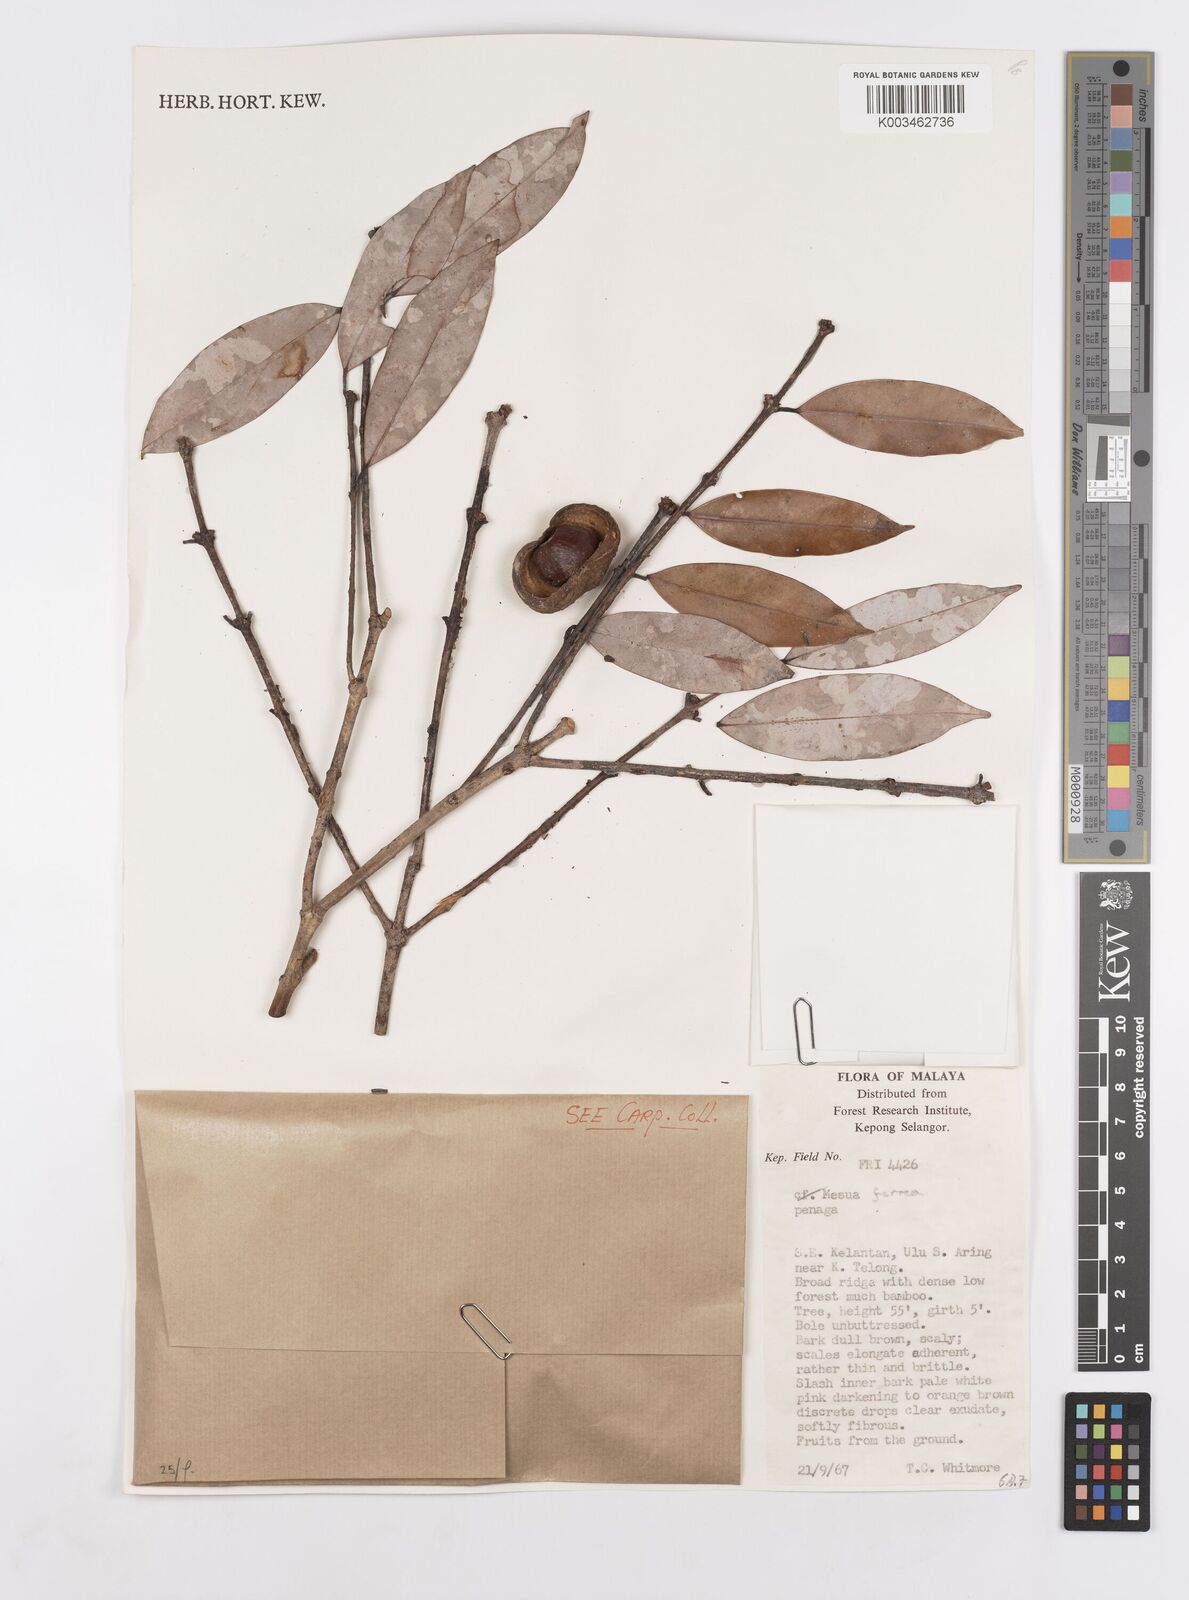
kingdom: Plantae
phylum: Tracheophyta
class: Magnoliopsida
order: Malpighiales
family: Calophyllaceae
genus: Mesua
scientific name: Mesua ferrea
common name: Mesua
